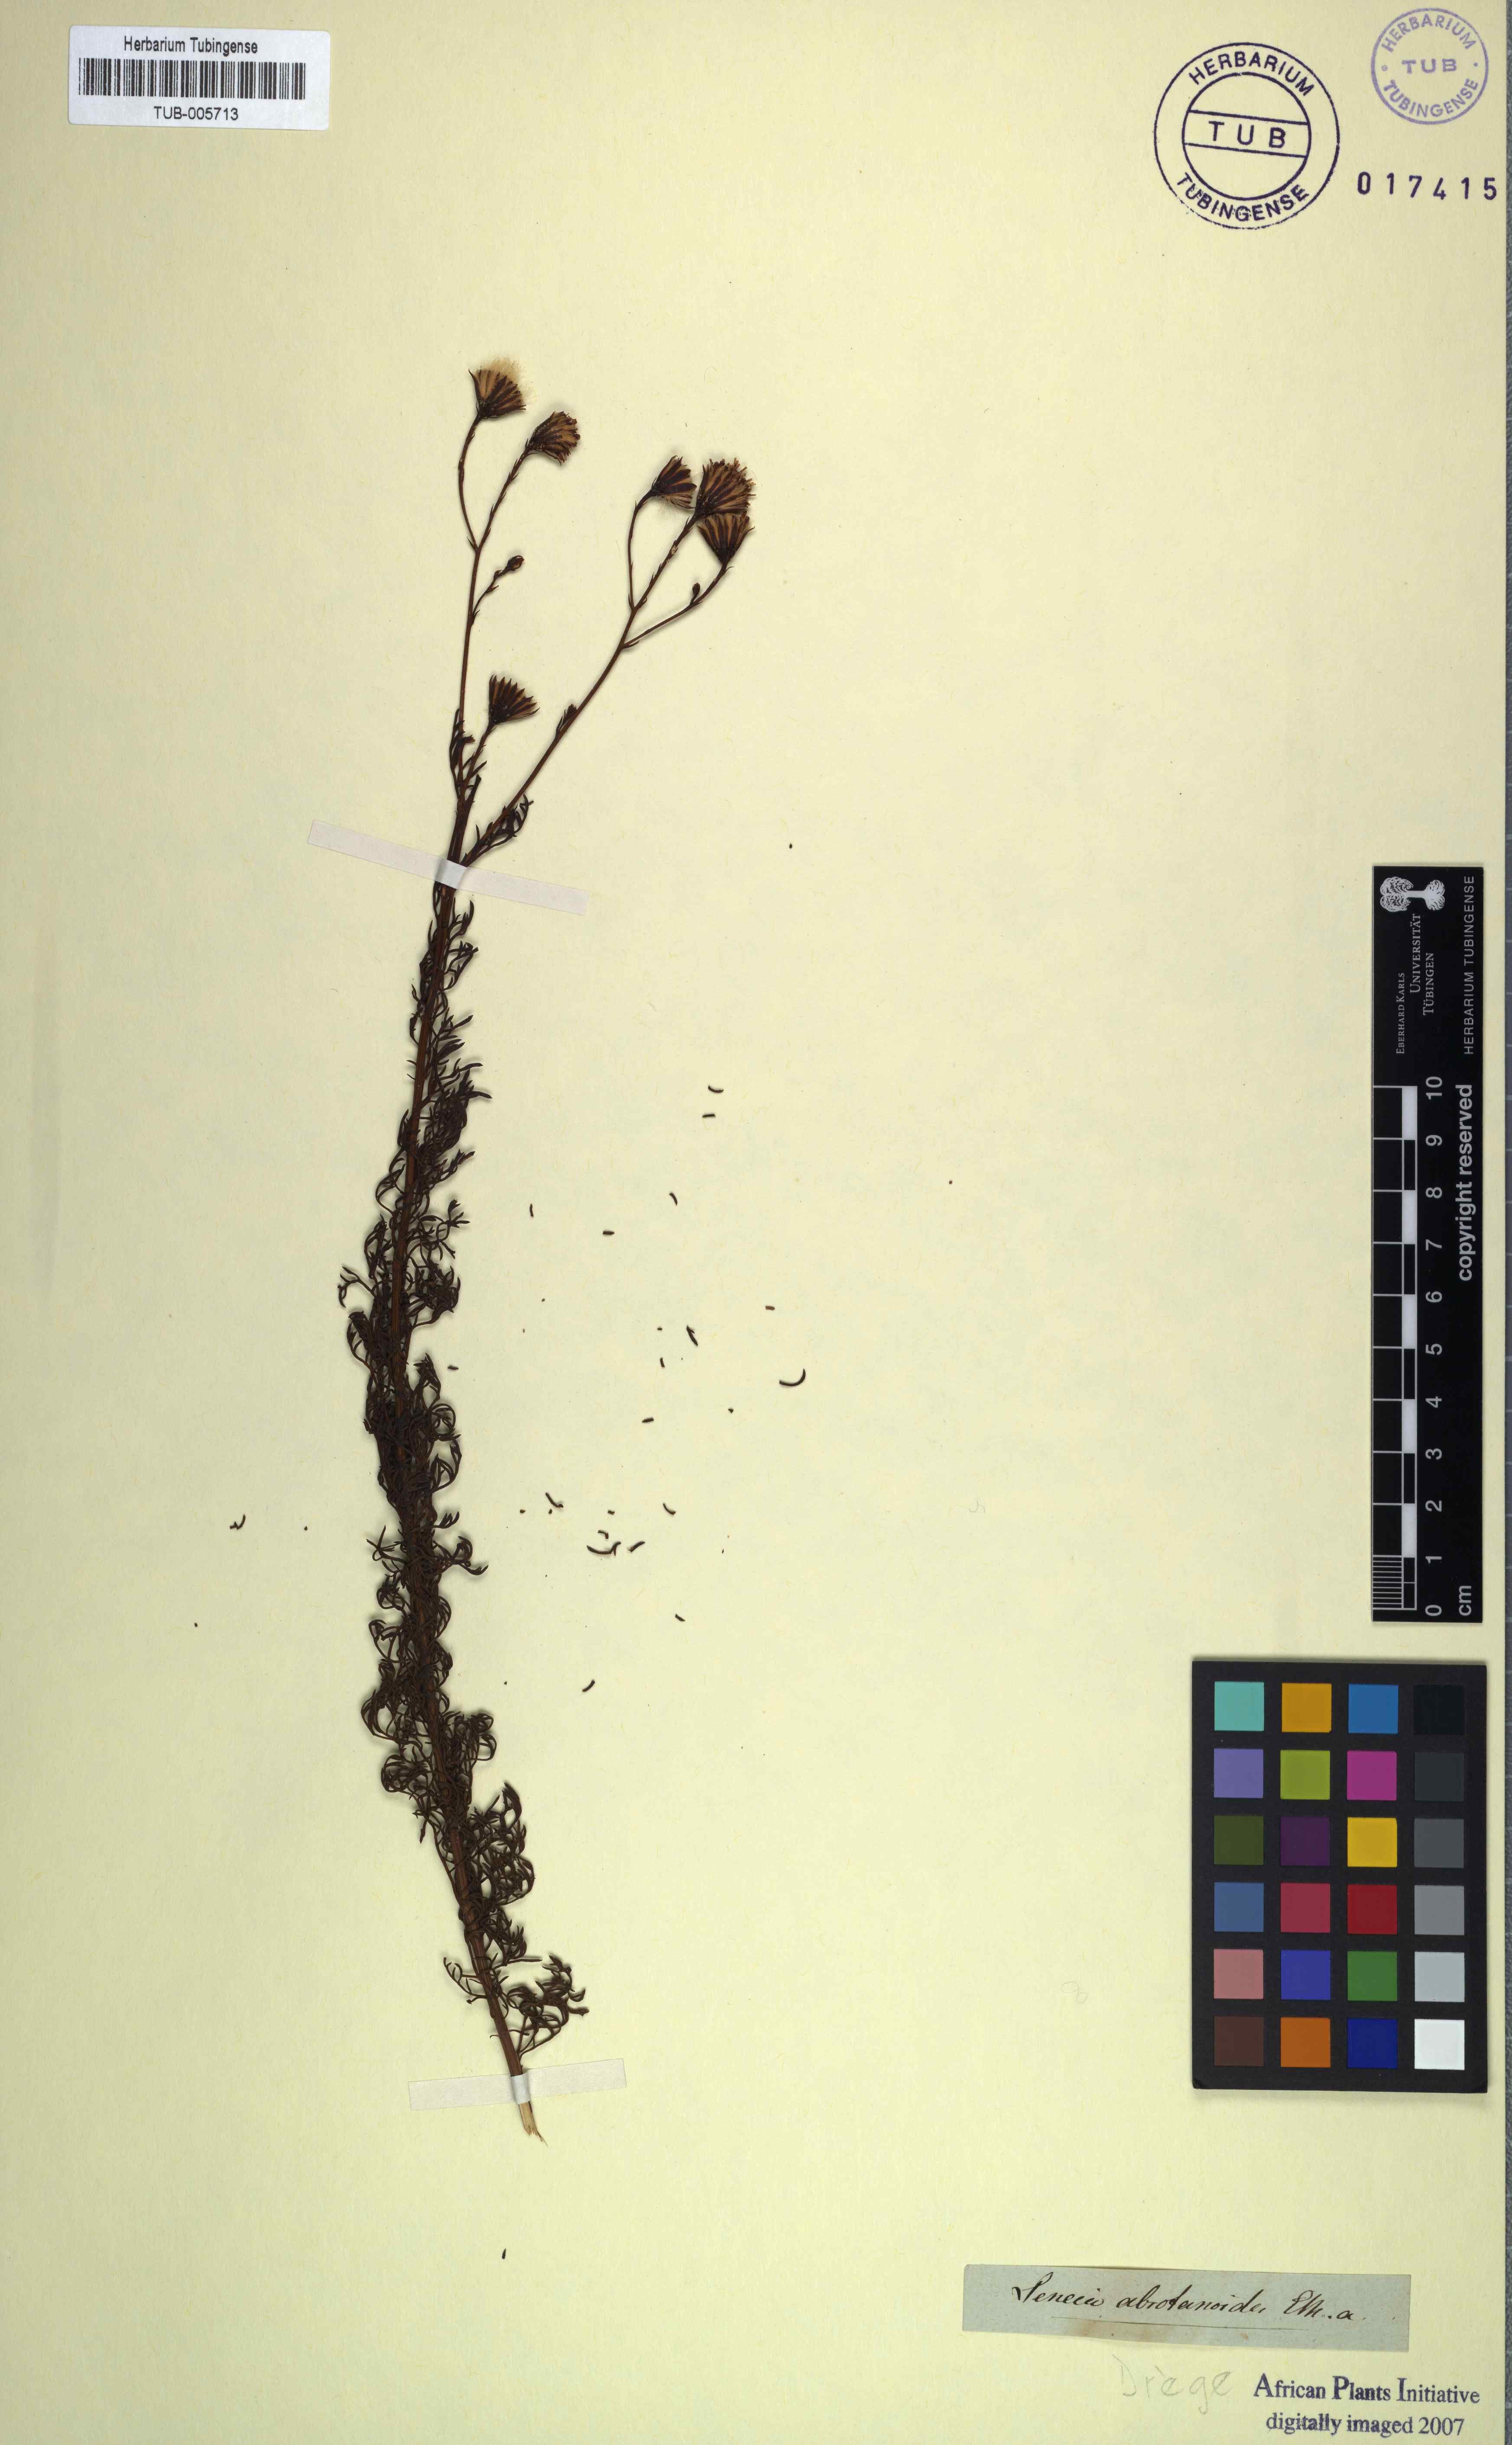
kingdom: Plantae
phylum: Tracheophyta
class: Magnoliopsida
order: Asterales
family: Asteraceae
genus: Senecio
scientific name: Senecio pinnatifidus
